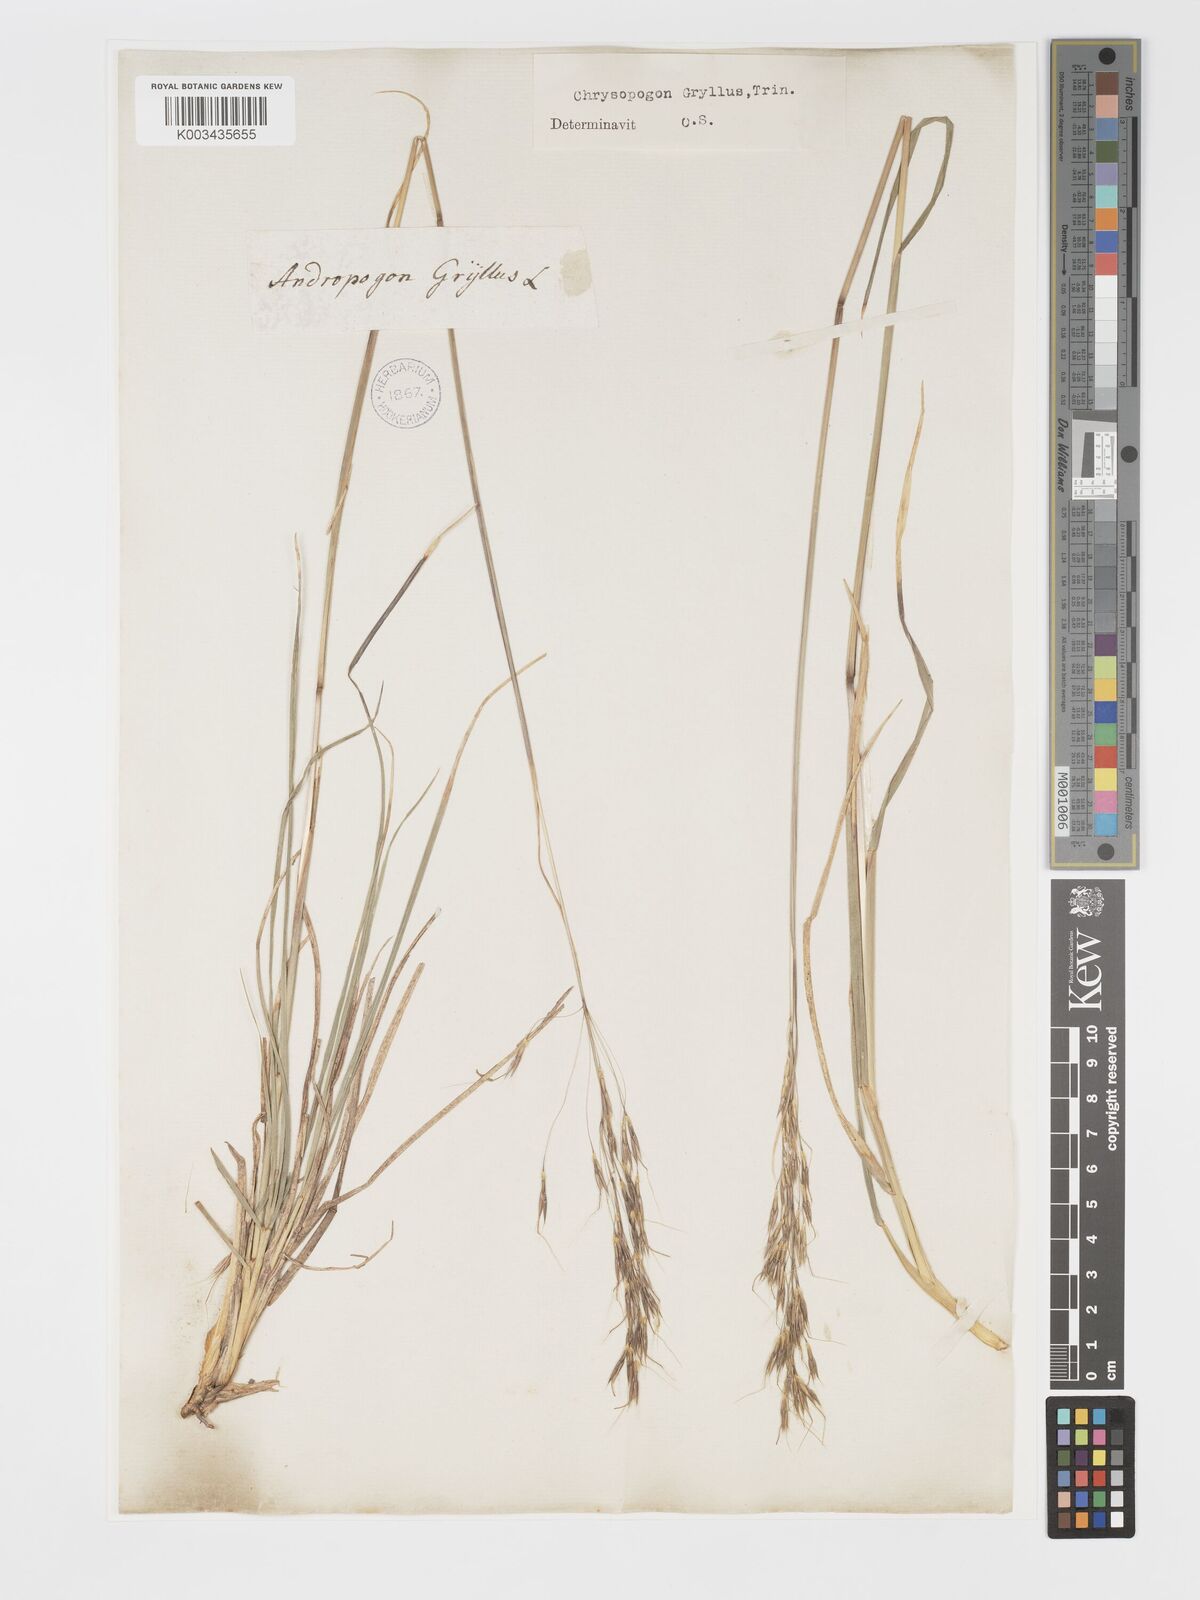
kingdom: Plantae
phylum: Tracheophyta
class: Liliopsida
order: Poales
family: Poaceae
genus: Chrysopogon
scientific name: Chrysopogon gryllus
